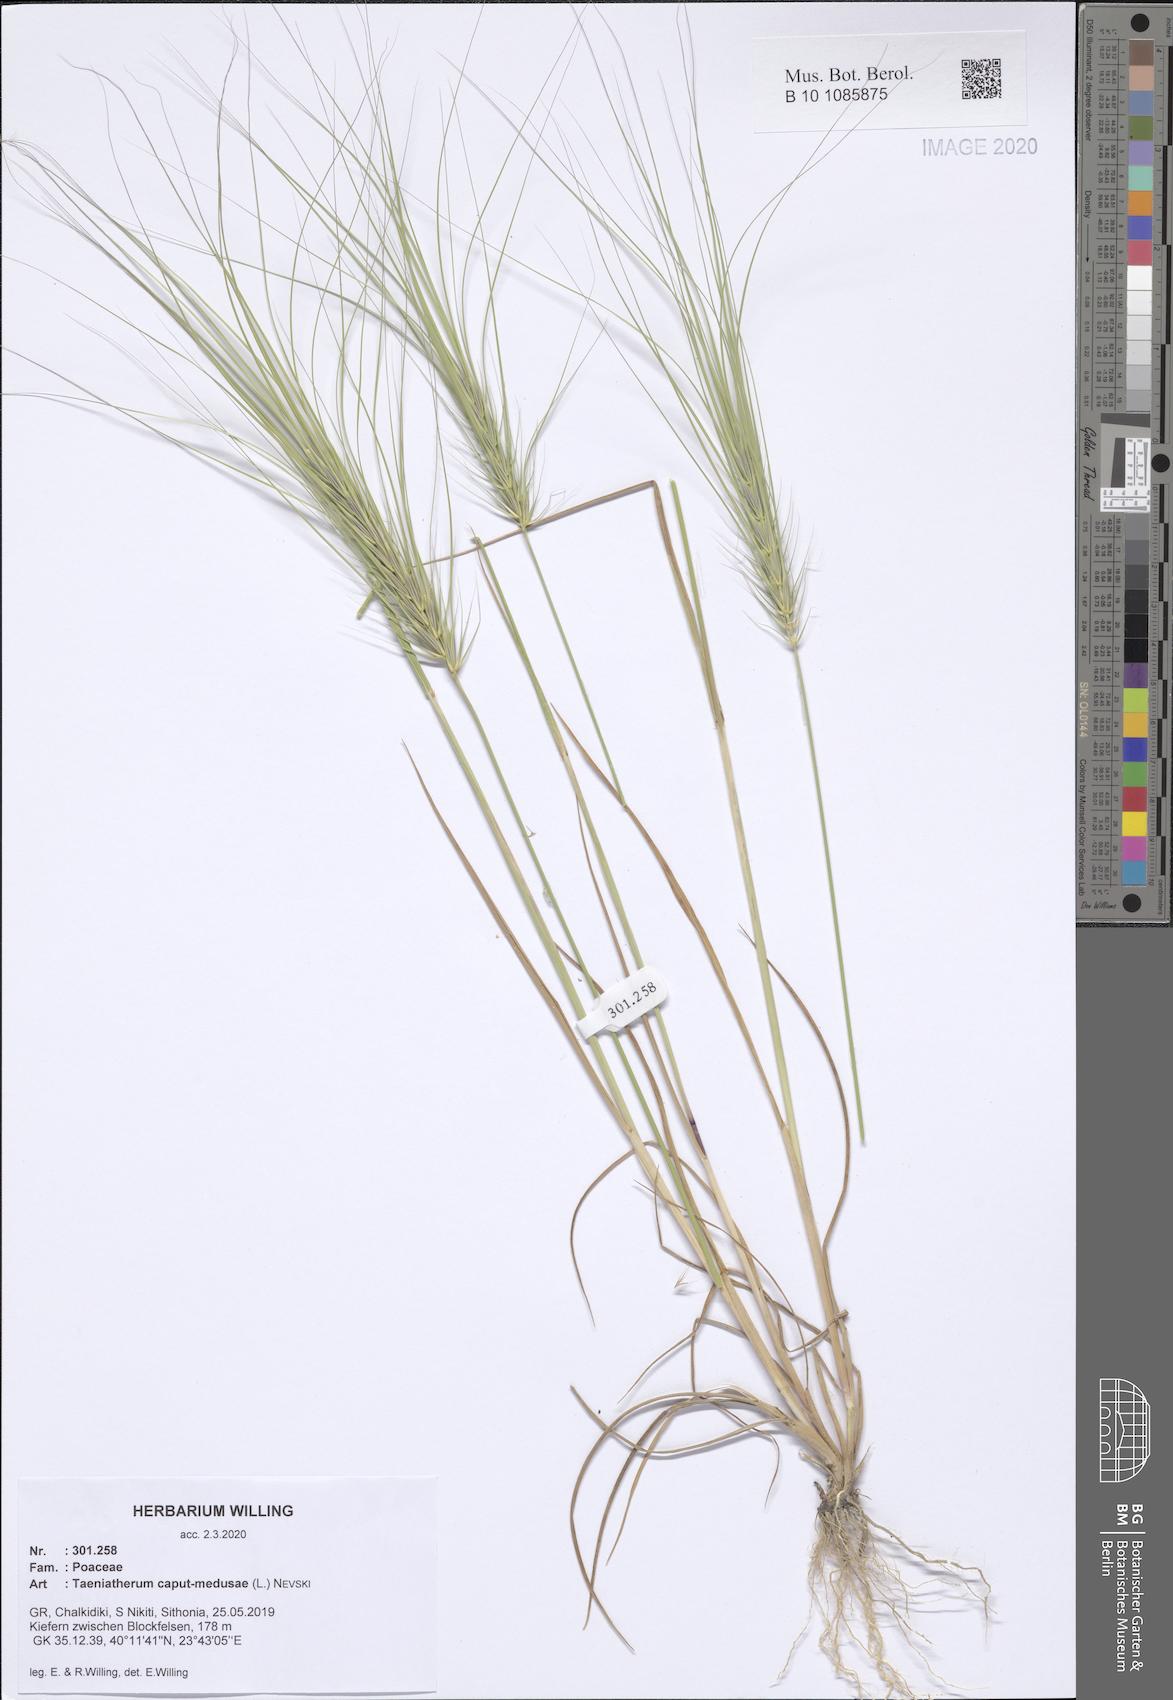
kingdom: Plantae
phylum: Tracheophyta
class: Liliopsida
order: Poales
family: Poaceae
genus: Taeniatherum
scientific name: Taeniatherum caput-medusae
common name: Medusahead
